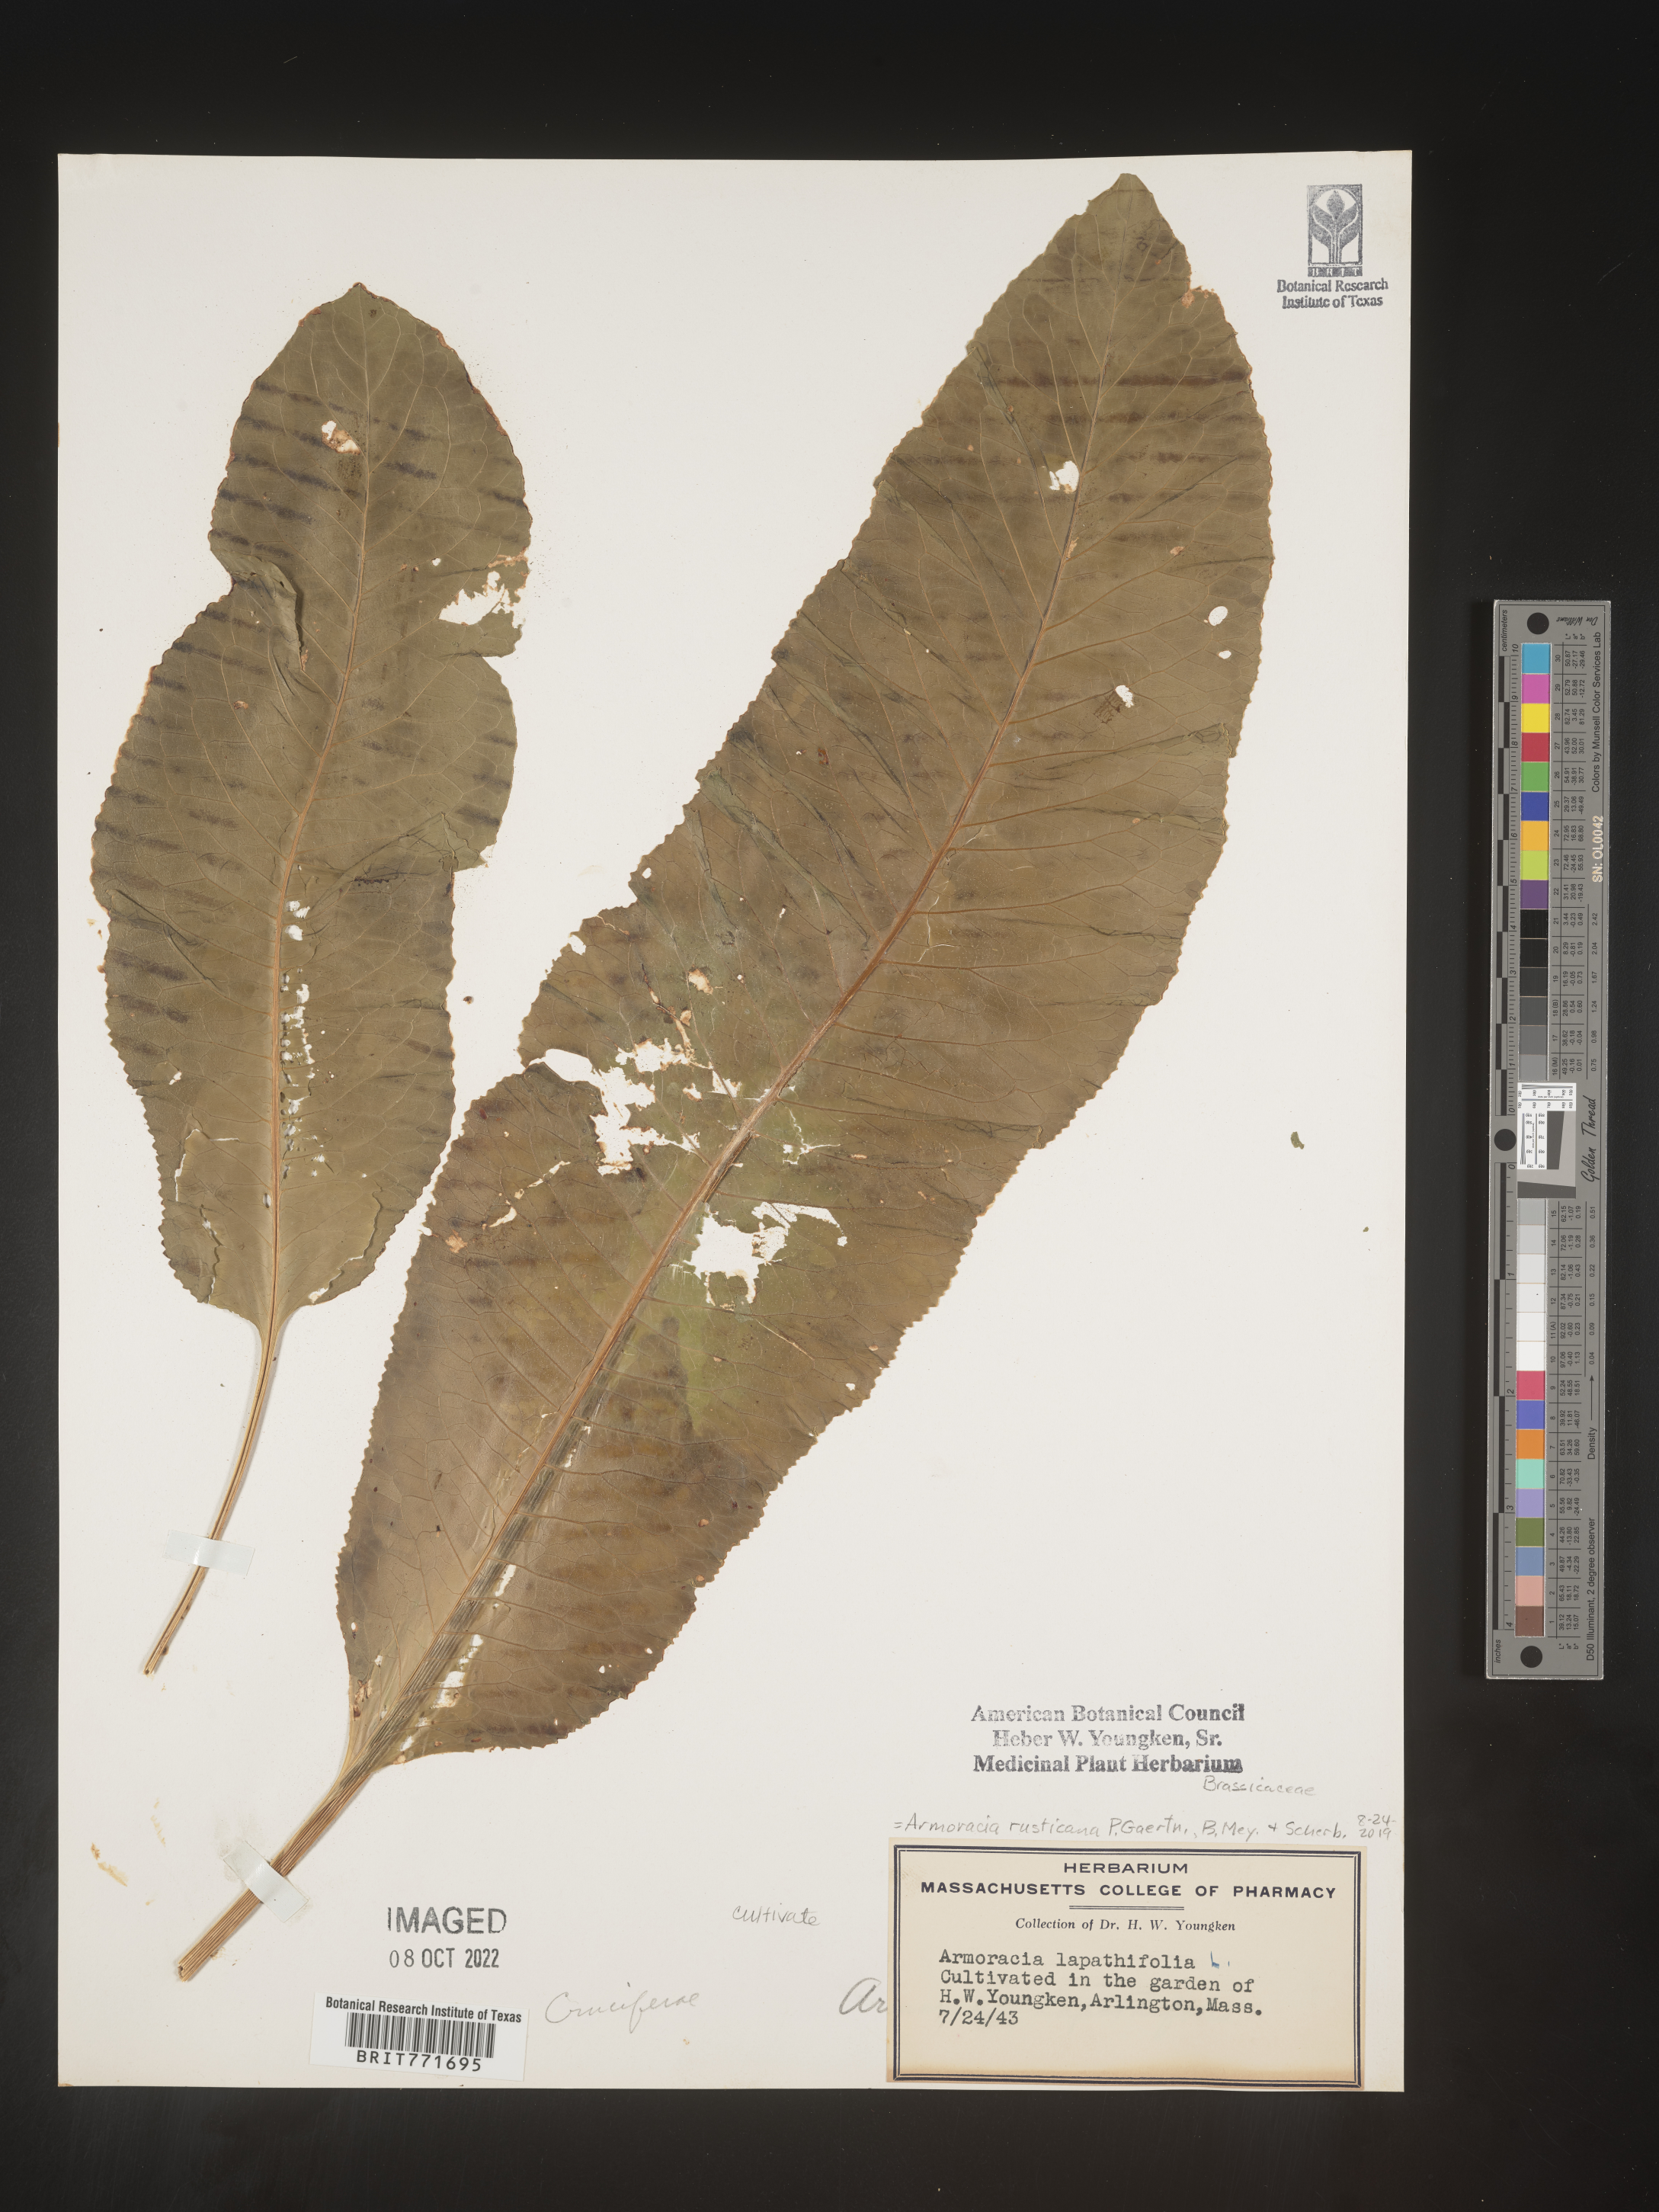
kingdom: Plantae
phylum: Tracheophyta
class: Magnoliopsida
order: Brassicales
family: Brassicaceae
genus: Armoracia
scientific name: Armoracia
